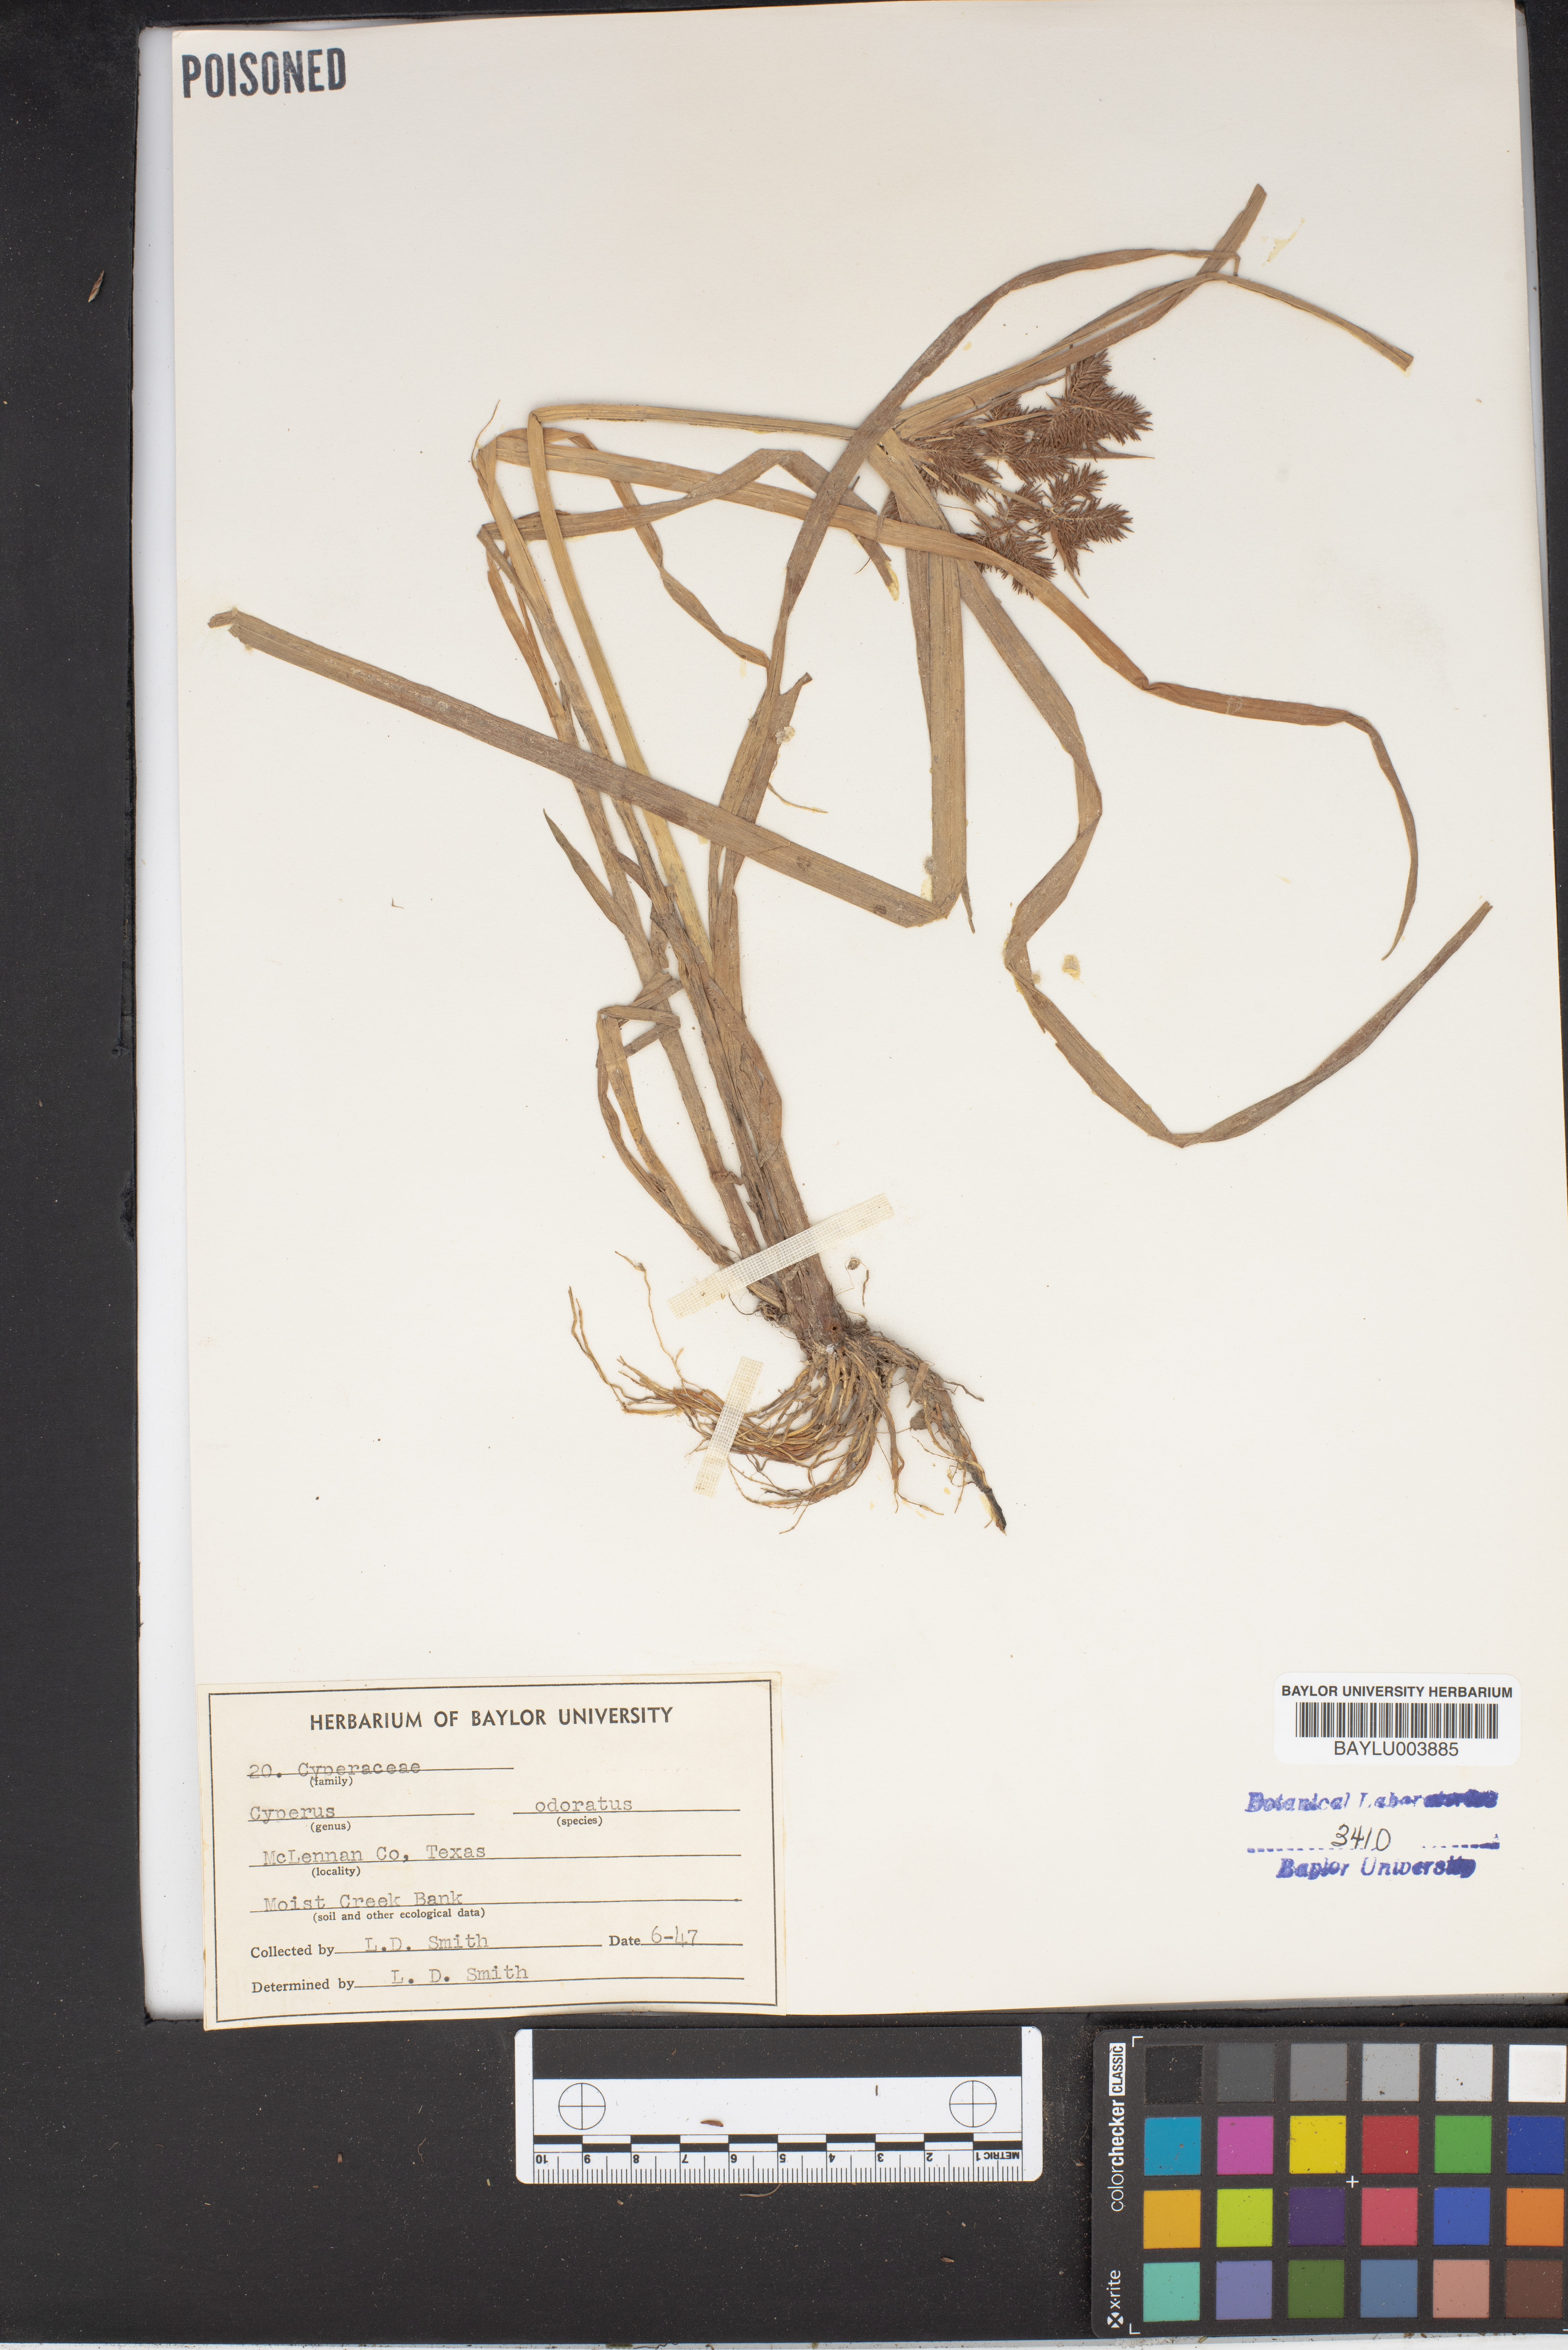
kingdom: Plantae
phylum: Tracheophyta
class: Liliopsida
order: Poales
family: Cyperaceae
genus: Cyperus
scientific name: Cyperus odoratus
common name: Fragrant flatsedge
